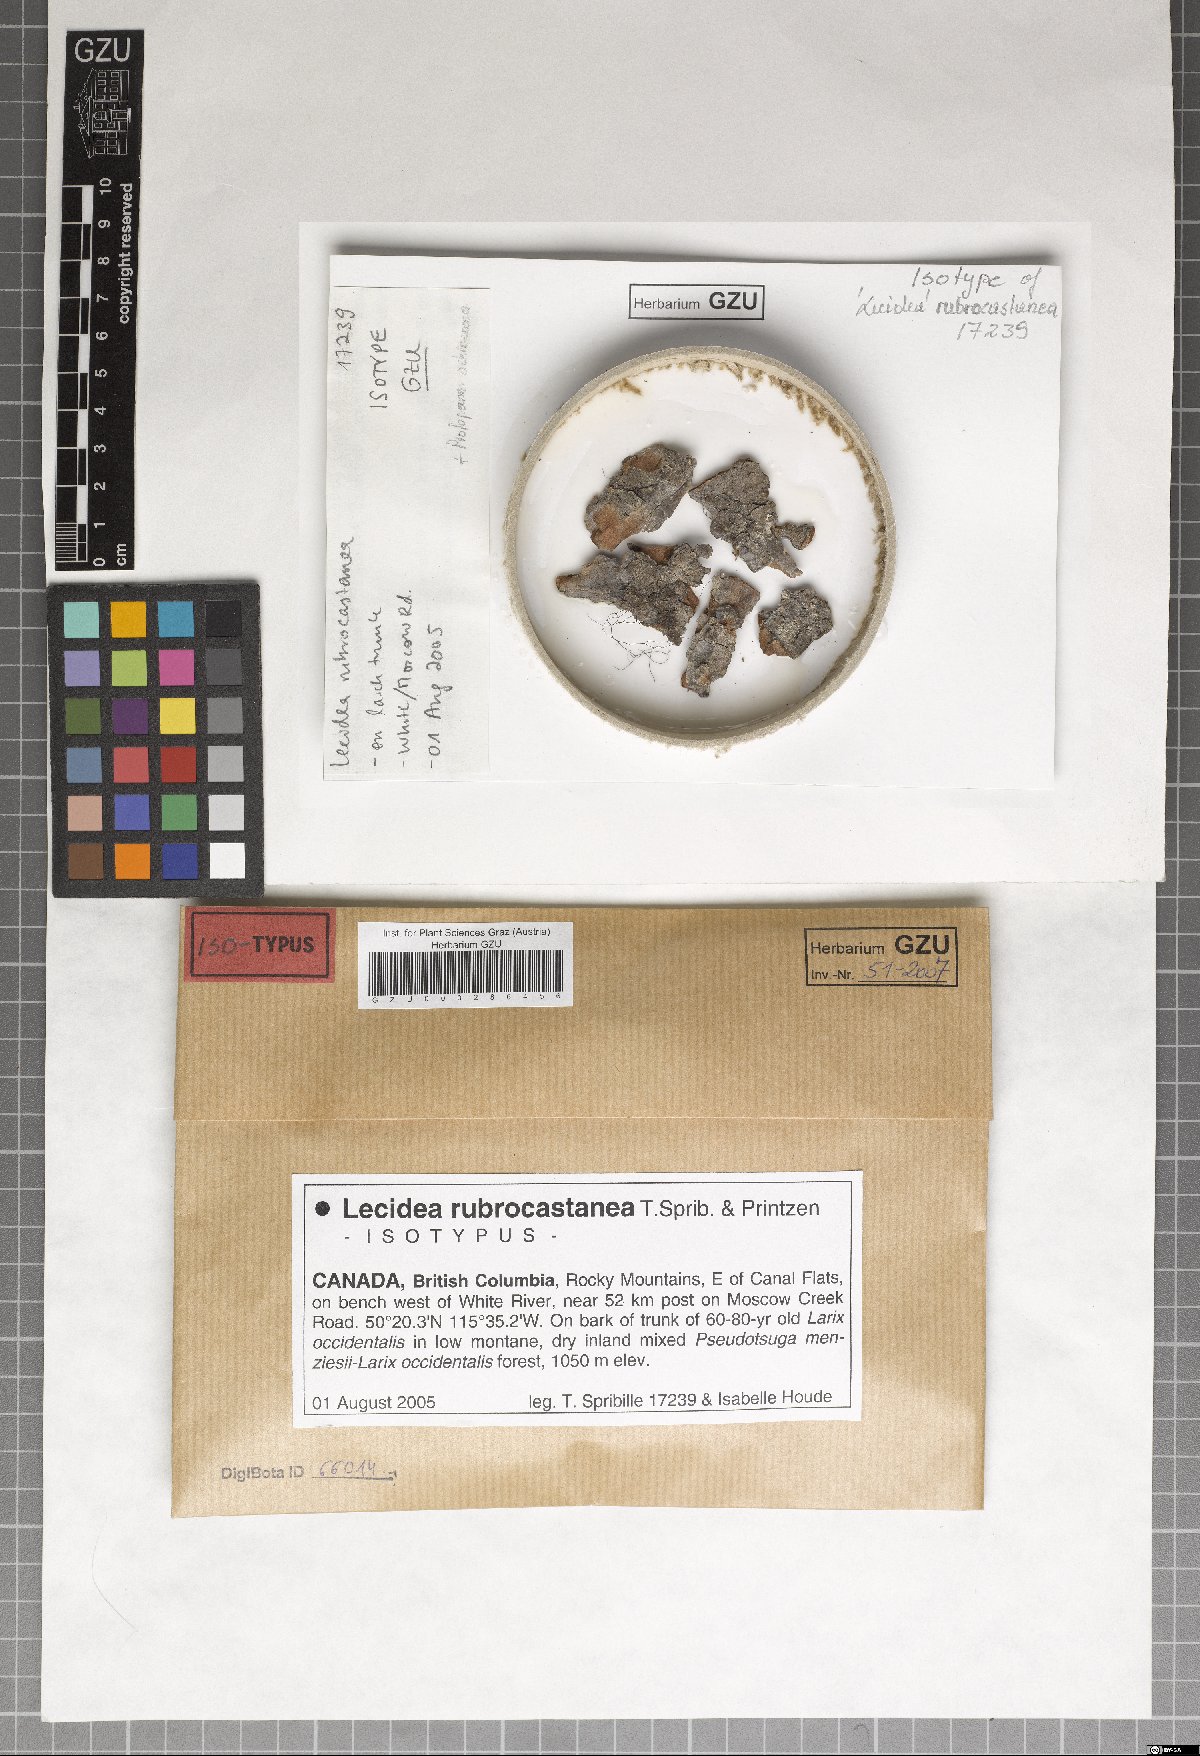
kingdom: Fungi
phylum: Ascomycota
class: Lecanoromycetes
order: Lecideales
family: Lecideaceae
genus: Lecidea
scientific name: Lecidea rubrocastanea
